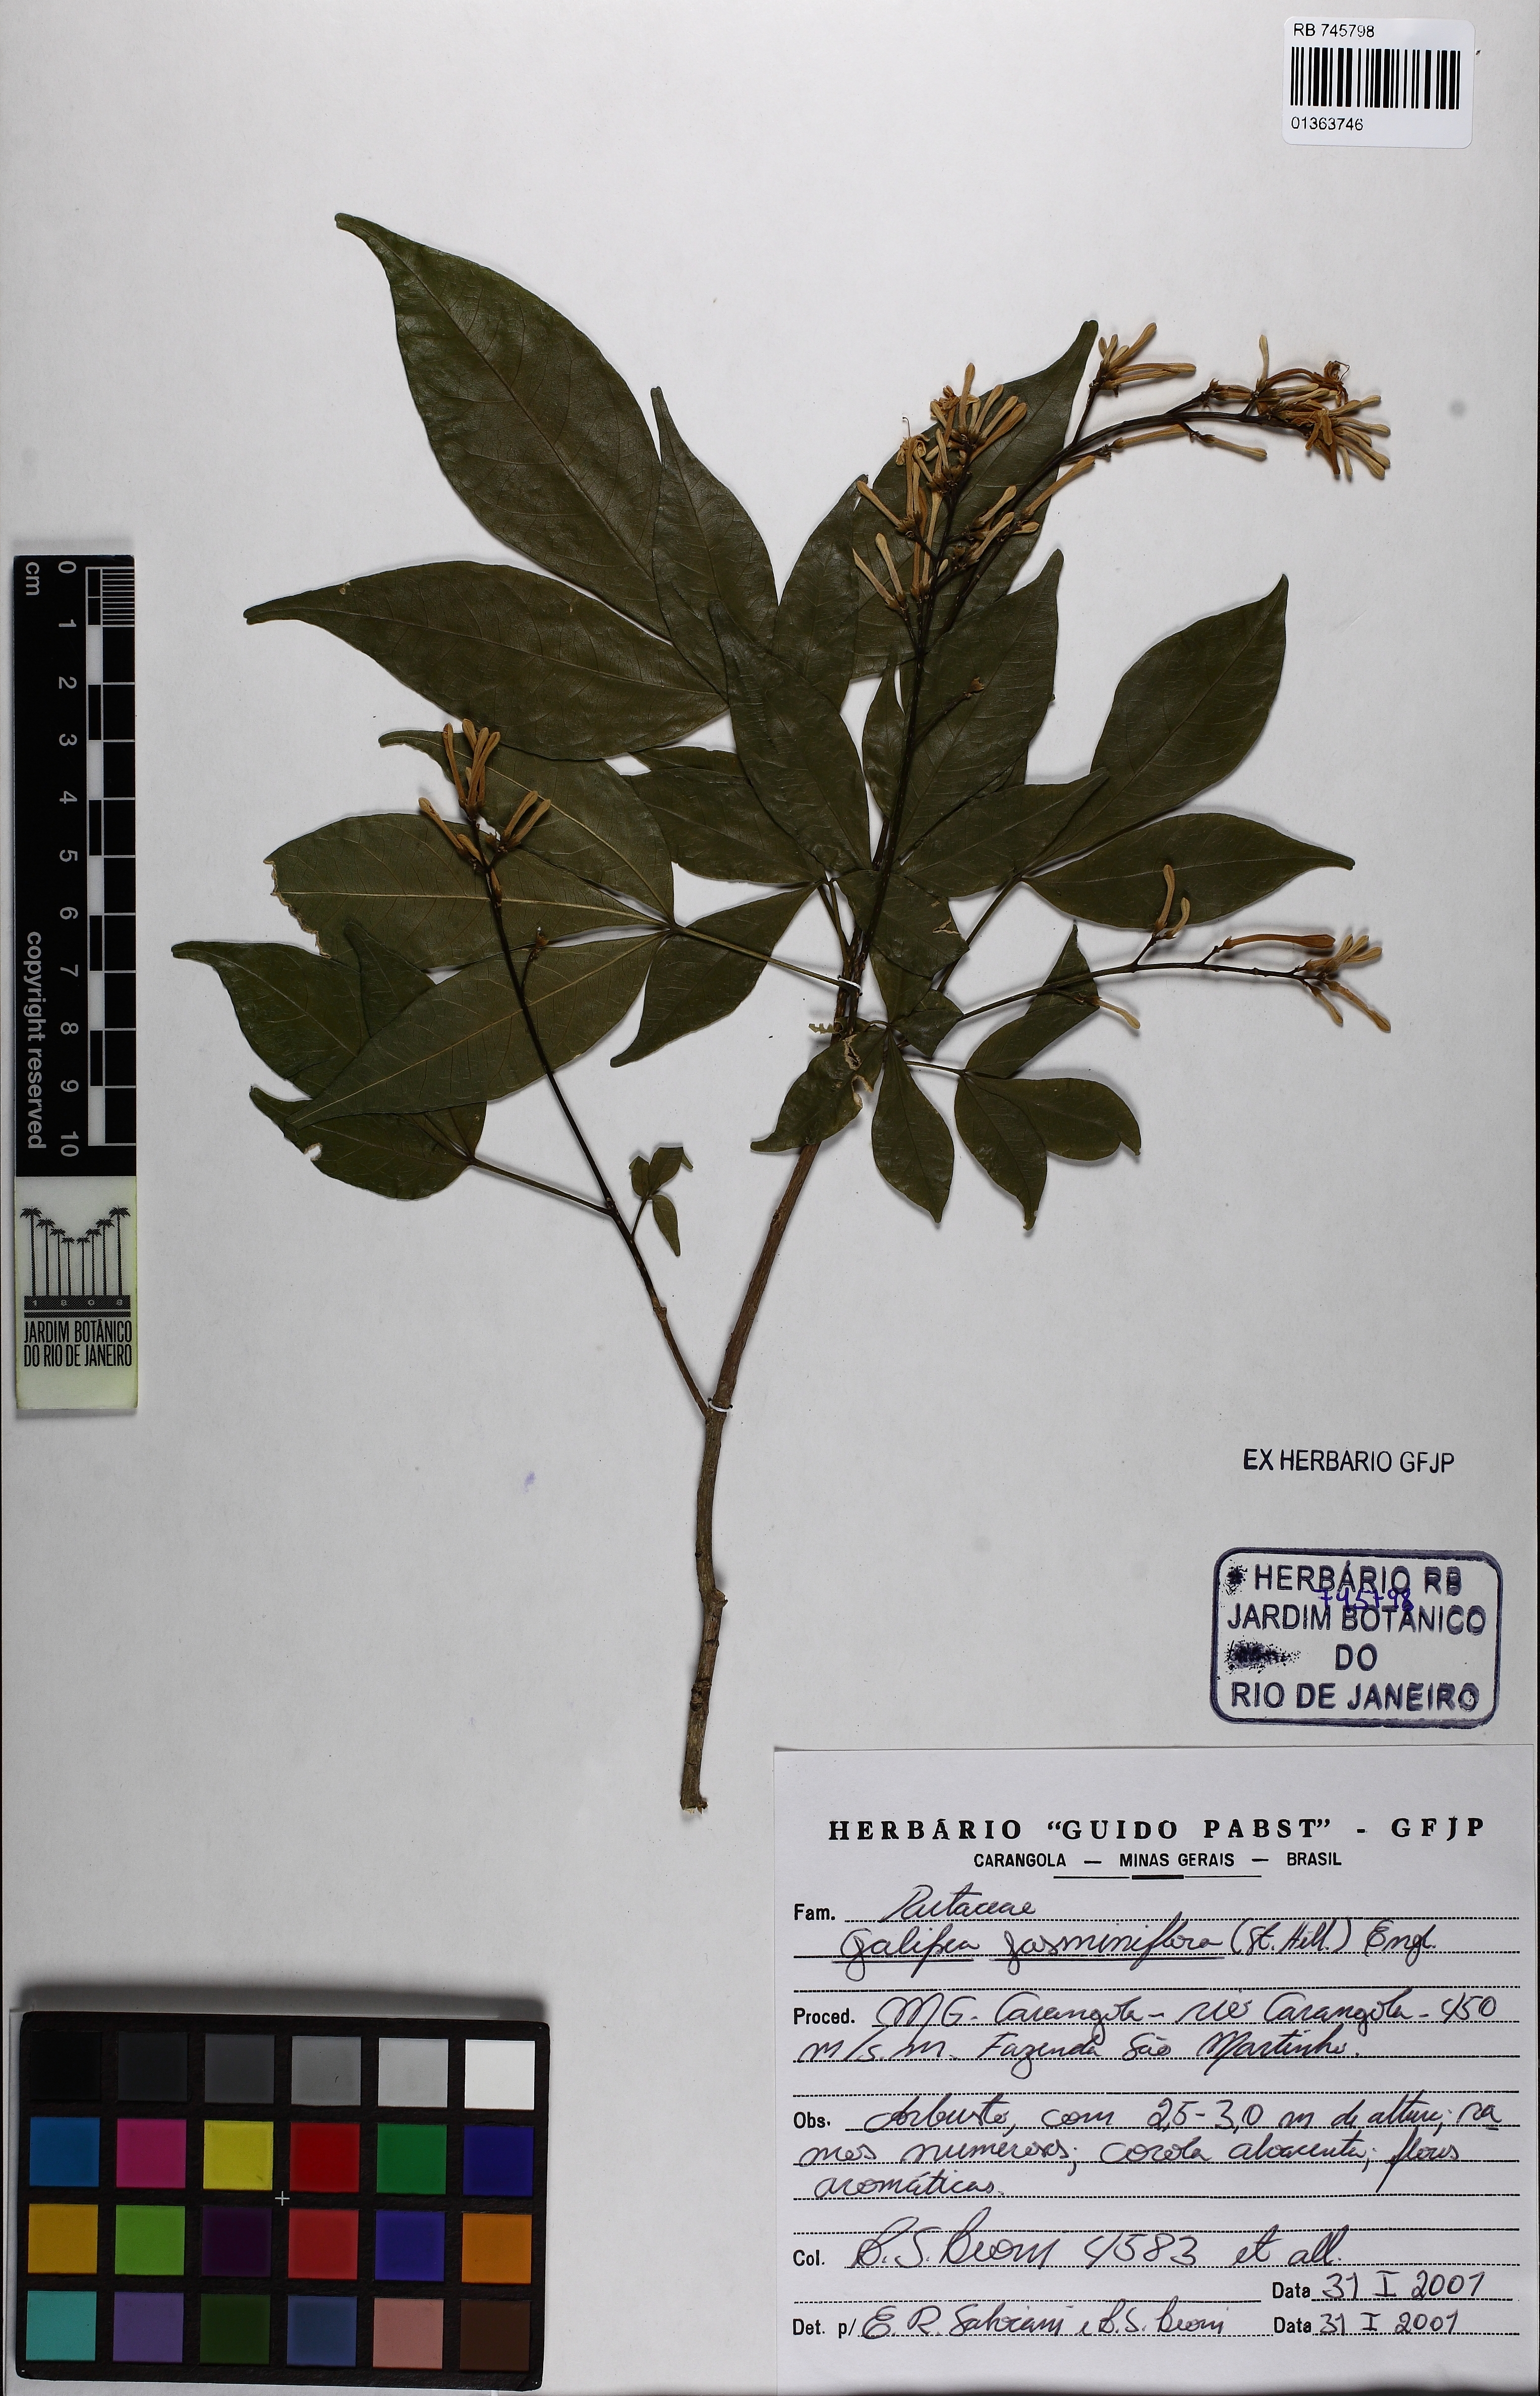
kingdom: Plantae
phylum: Tracheophyta
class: Magnoliopsida
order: Sapindales
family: Rutaceae
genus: Galipea
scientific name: Galipea jasminiflora
